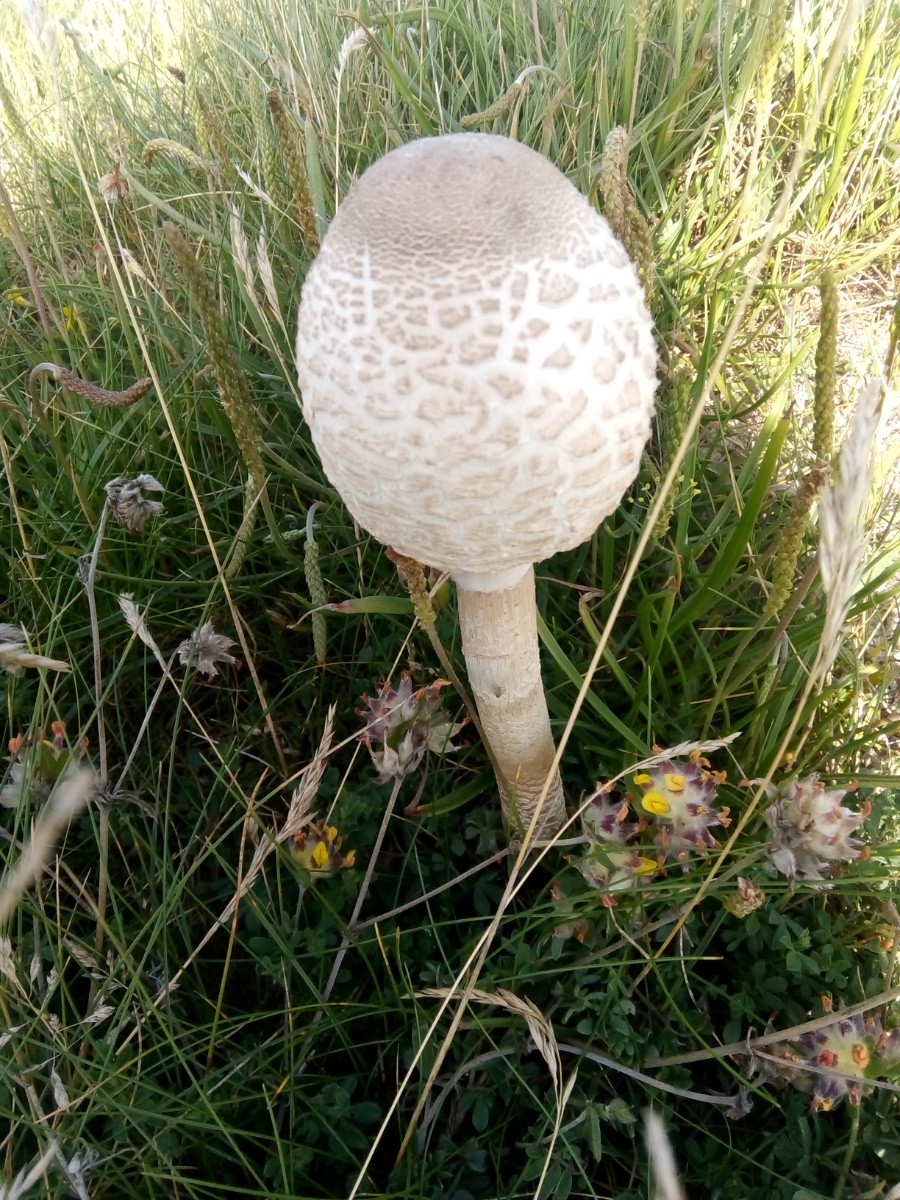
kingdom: Fungi
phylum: Basidiomycota
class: Agaricomycetes
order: Agaricales
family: Agaricaceae
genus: Macrolepiota
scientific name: Macrolepiota procera
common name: stor kæmpeparasolhat
